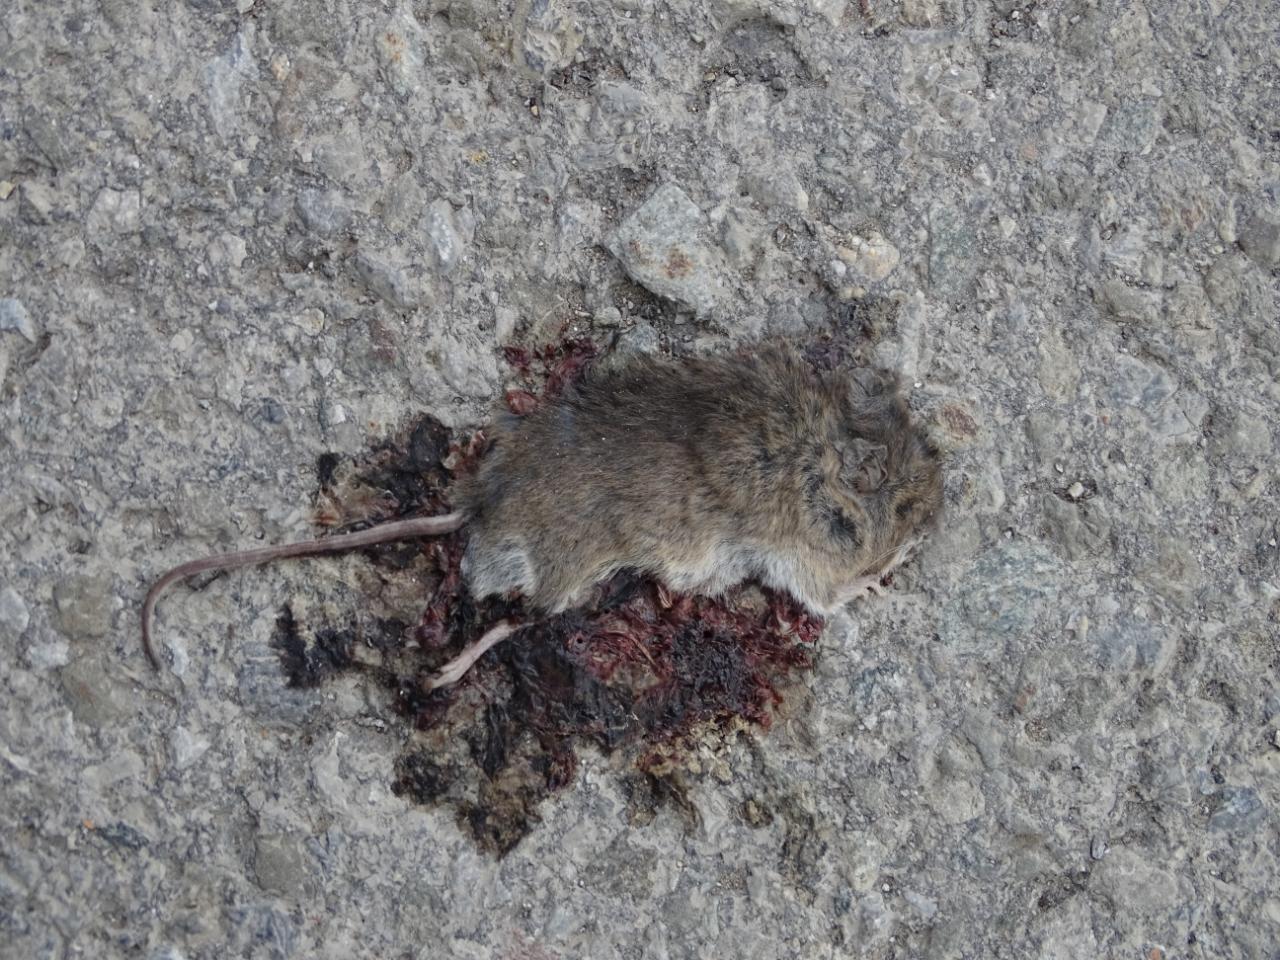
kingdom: Animalia
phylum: Chordata
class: Mammalia
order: Rodentia
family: Muridae
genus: Apodemus
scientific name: Apodemus
